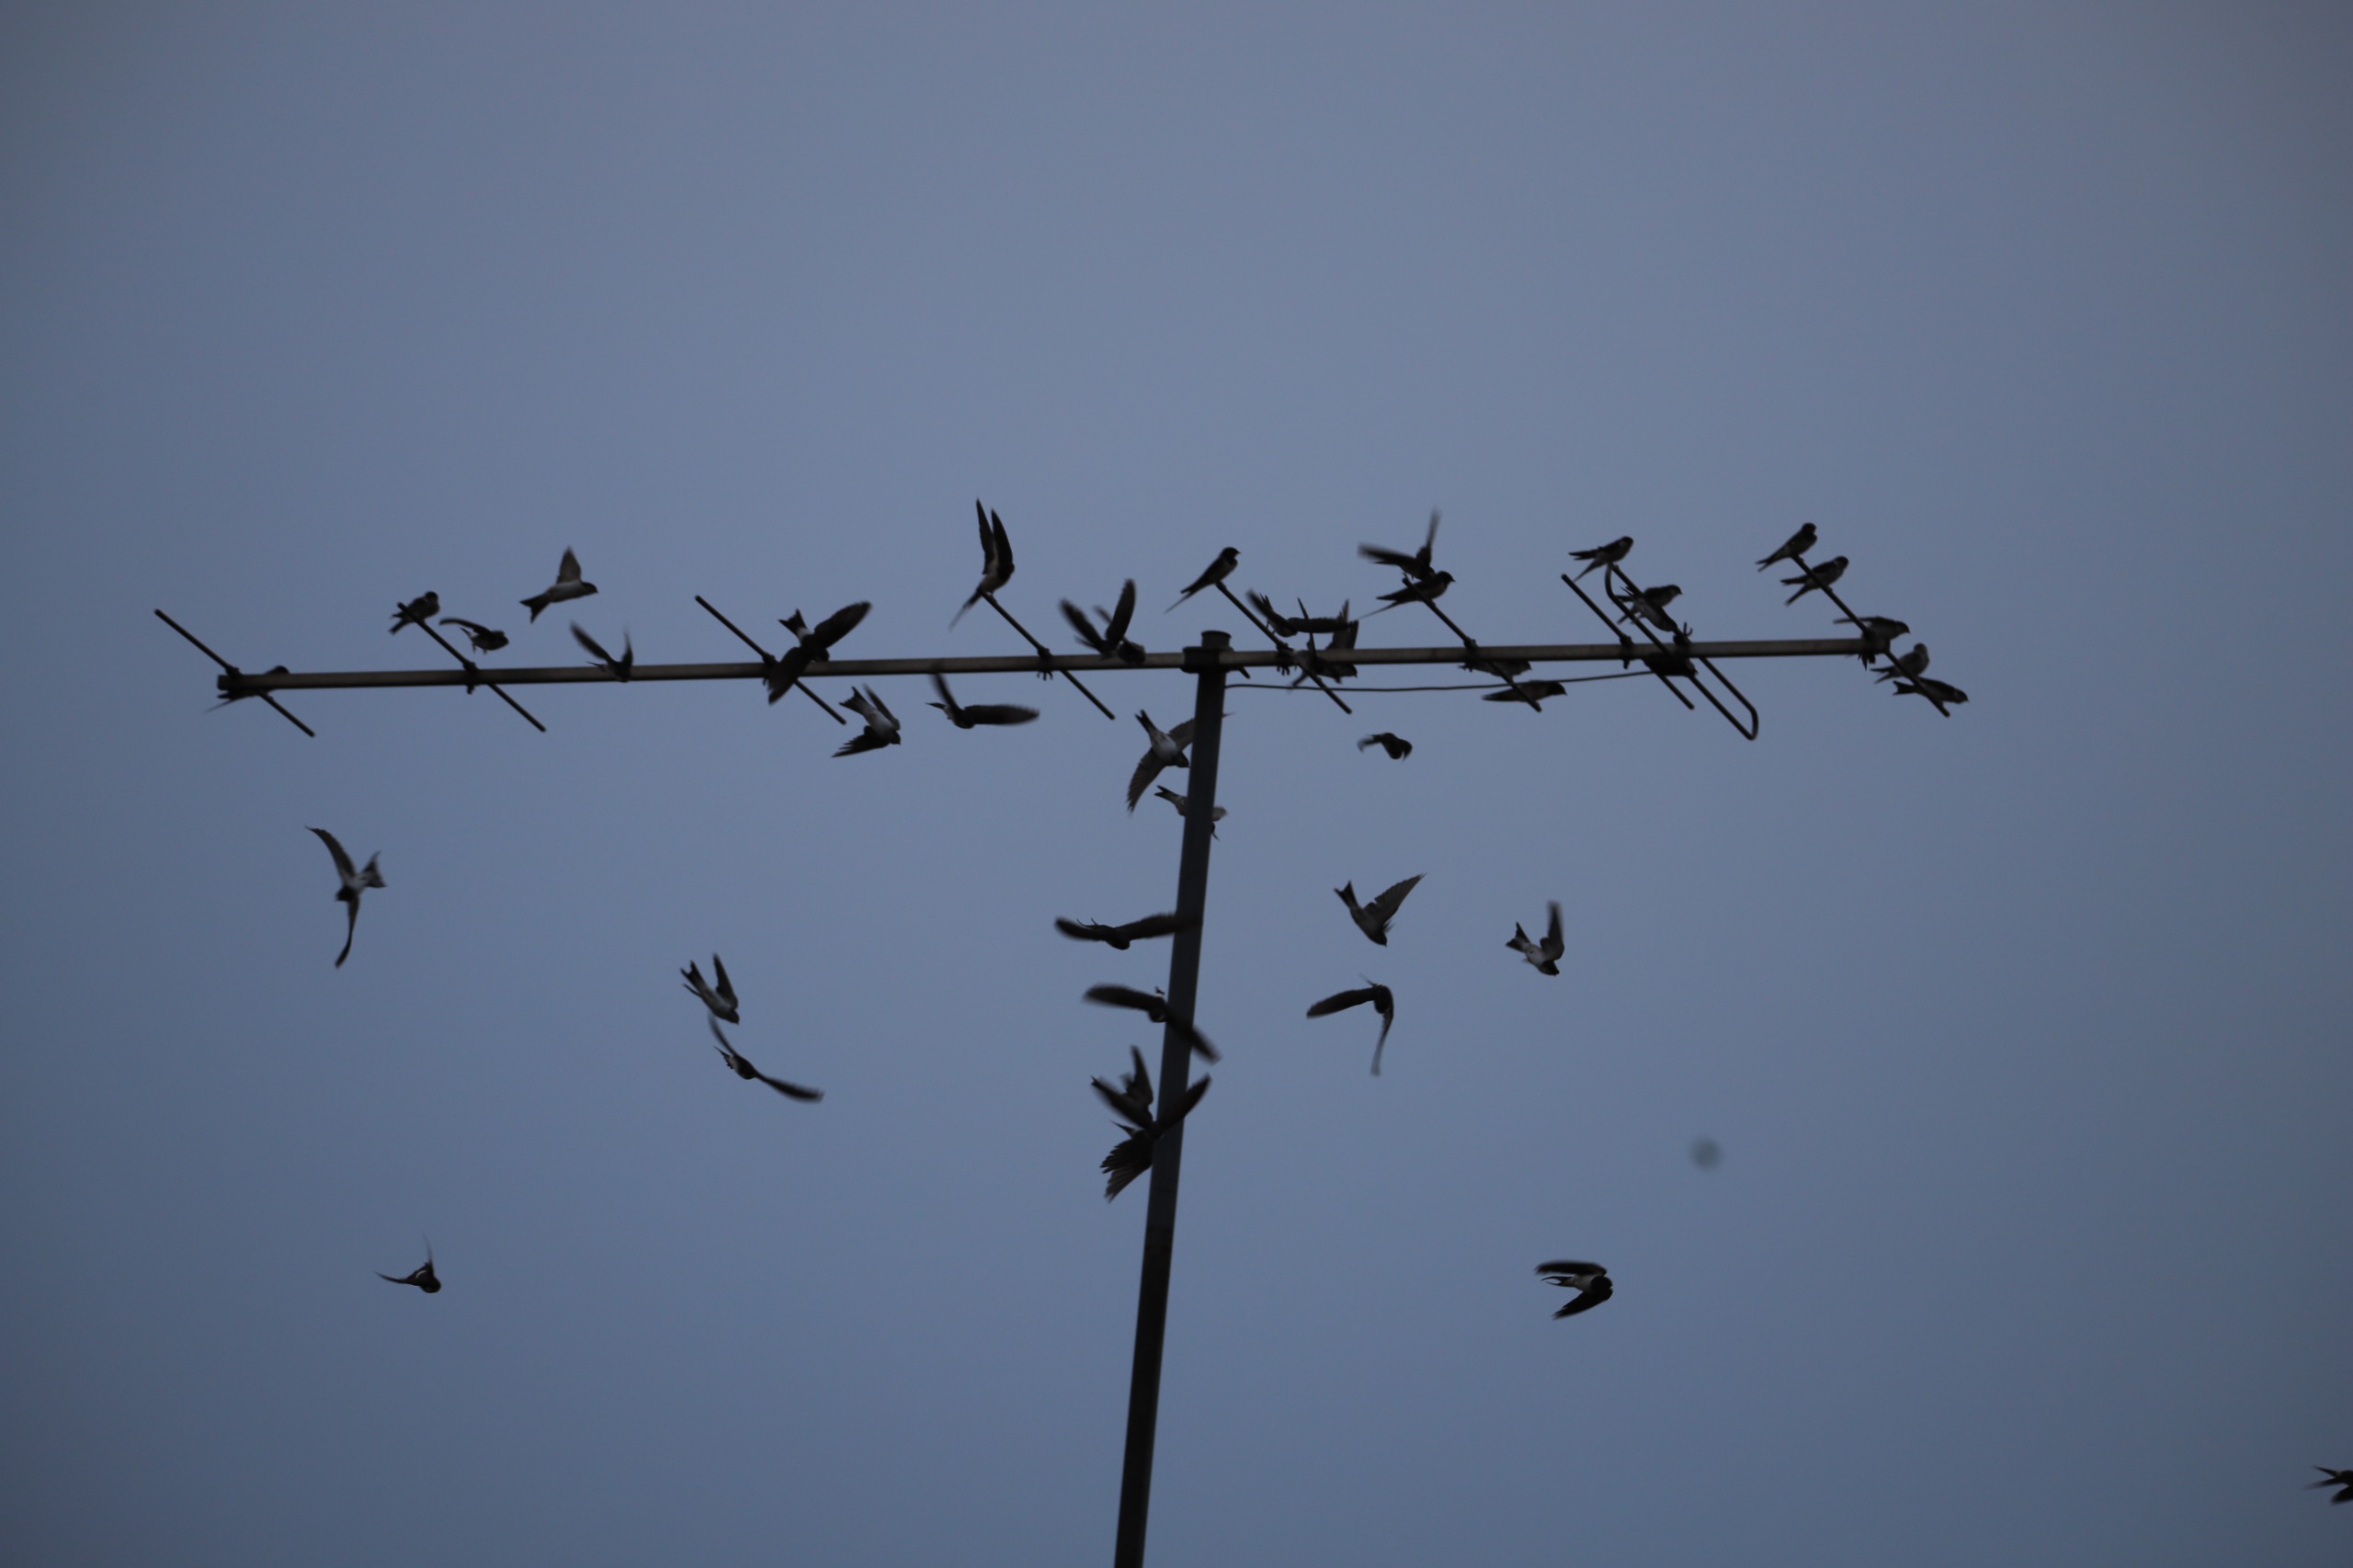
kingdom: Animalia
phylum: Chordata
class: Aves
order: Passeriformes
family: Hirundinidae
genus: Hirundo
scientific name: Hirundo rustica
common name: Landsvale
